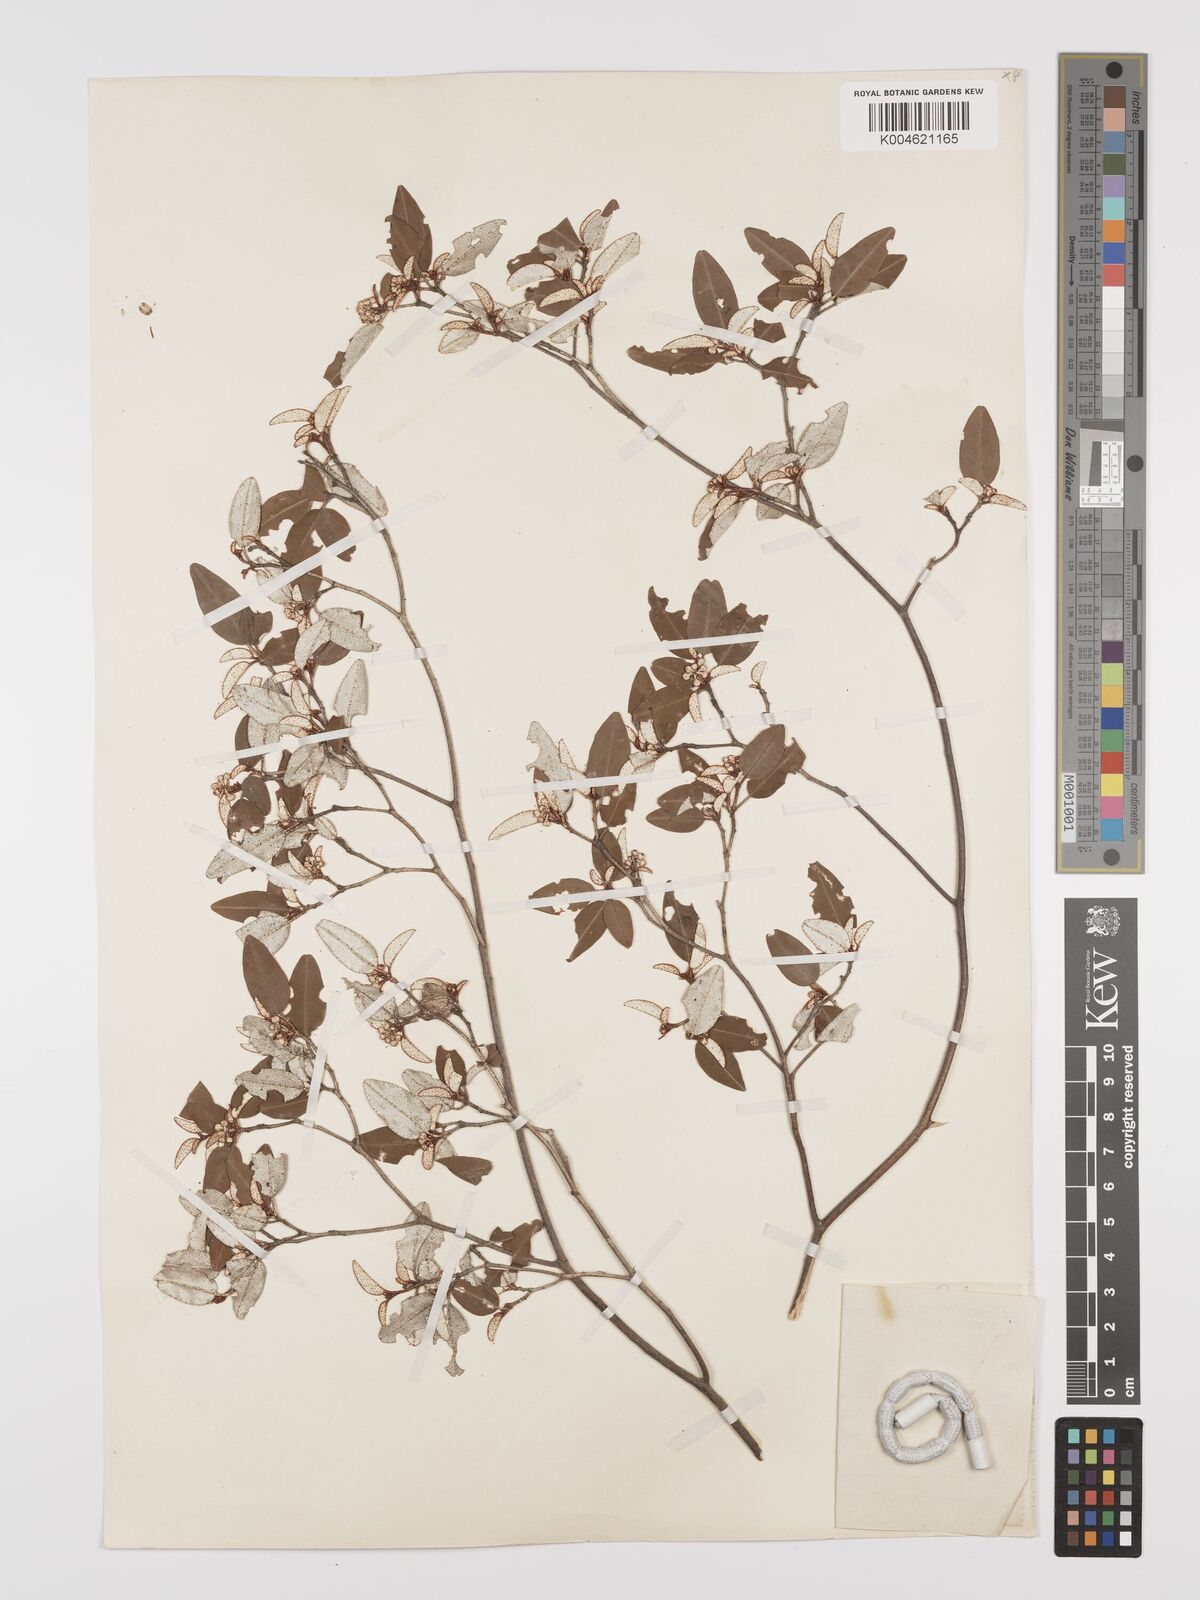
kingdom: Plantae
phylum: Tracheophyta
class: Magnoliopsida
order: Malpighiales
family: Euphorbiaceae
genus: Croton
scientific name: Croton pseudopulchellus
